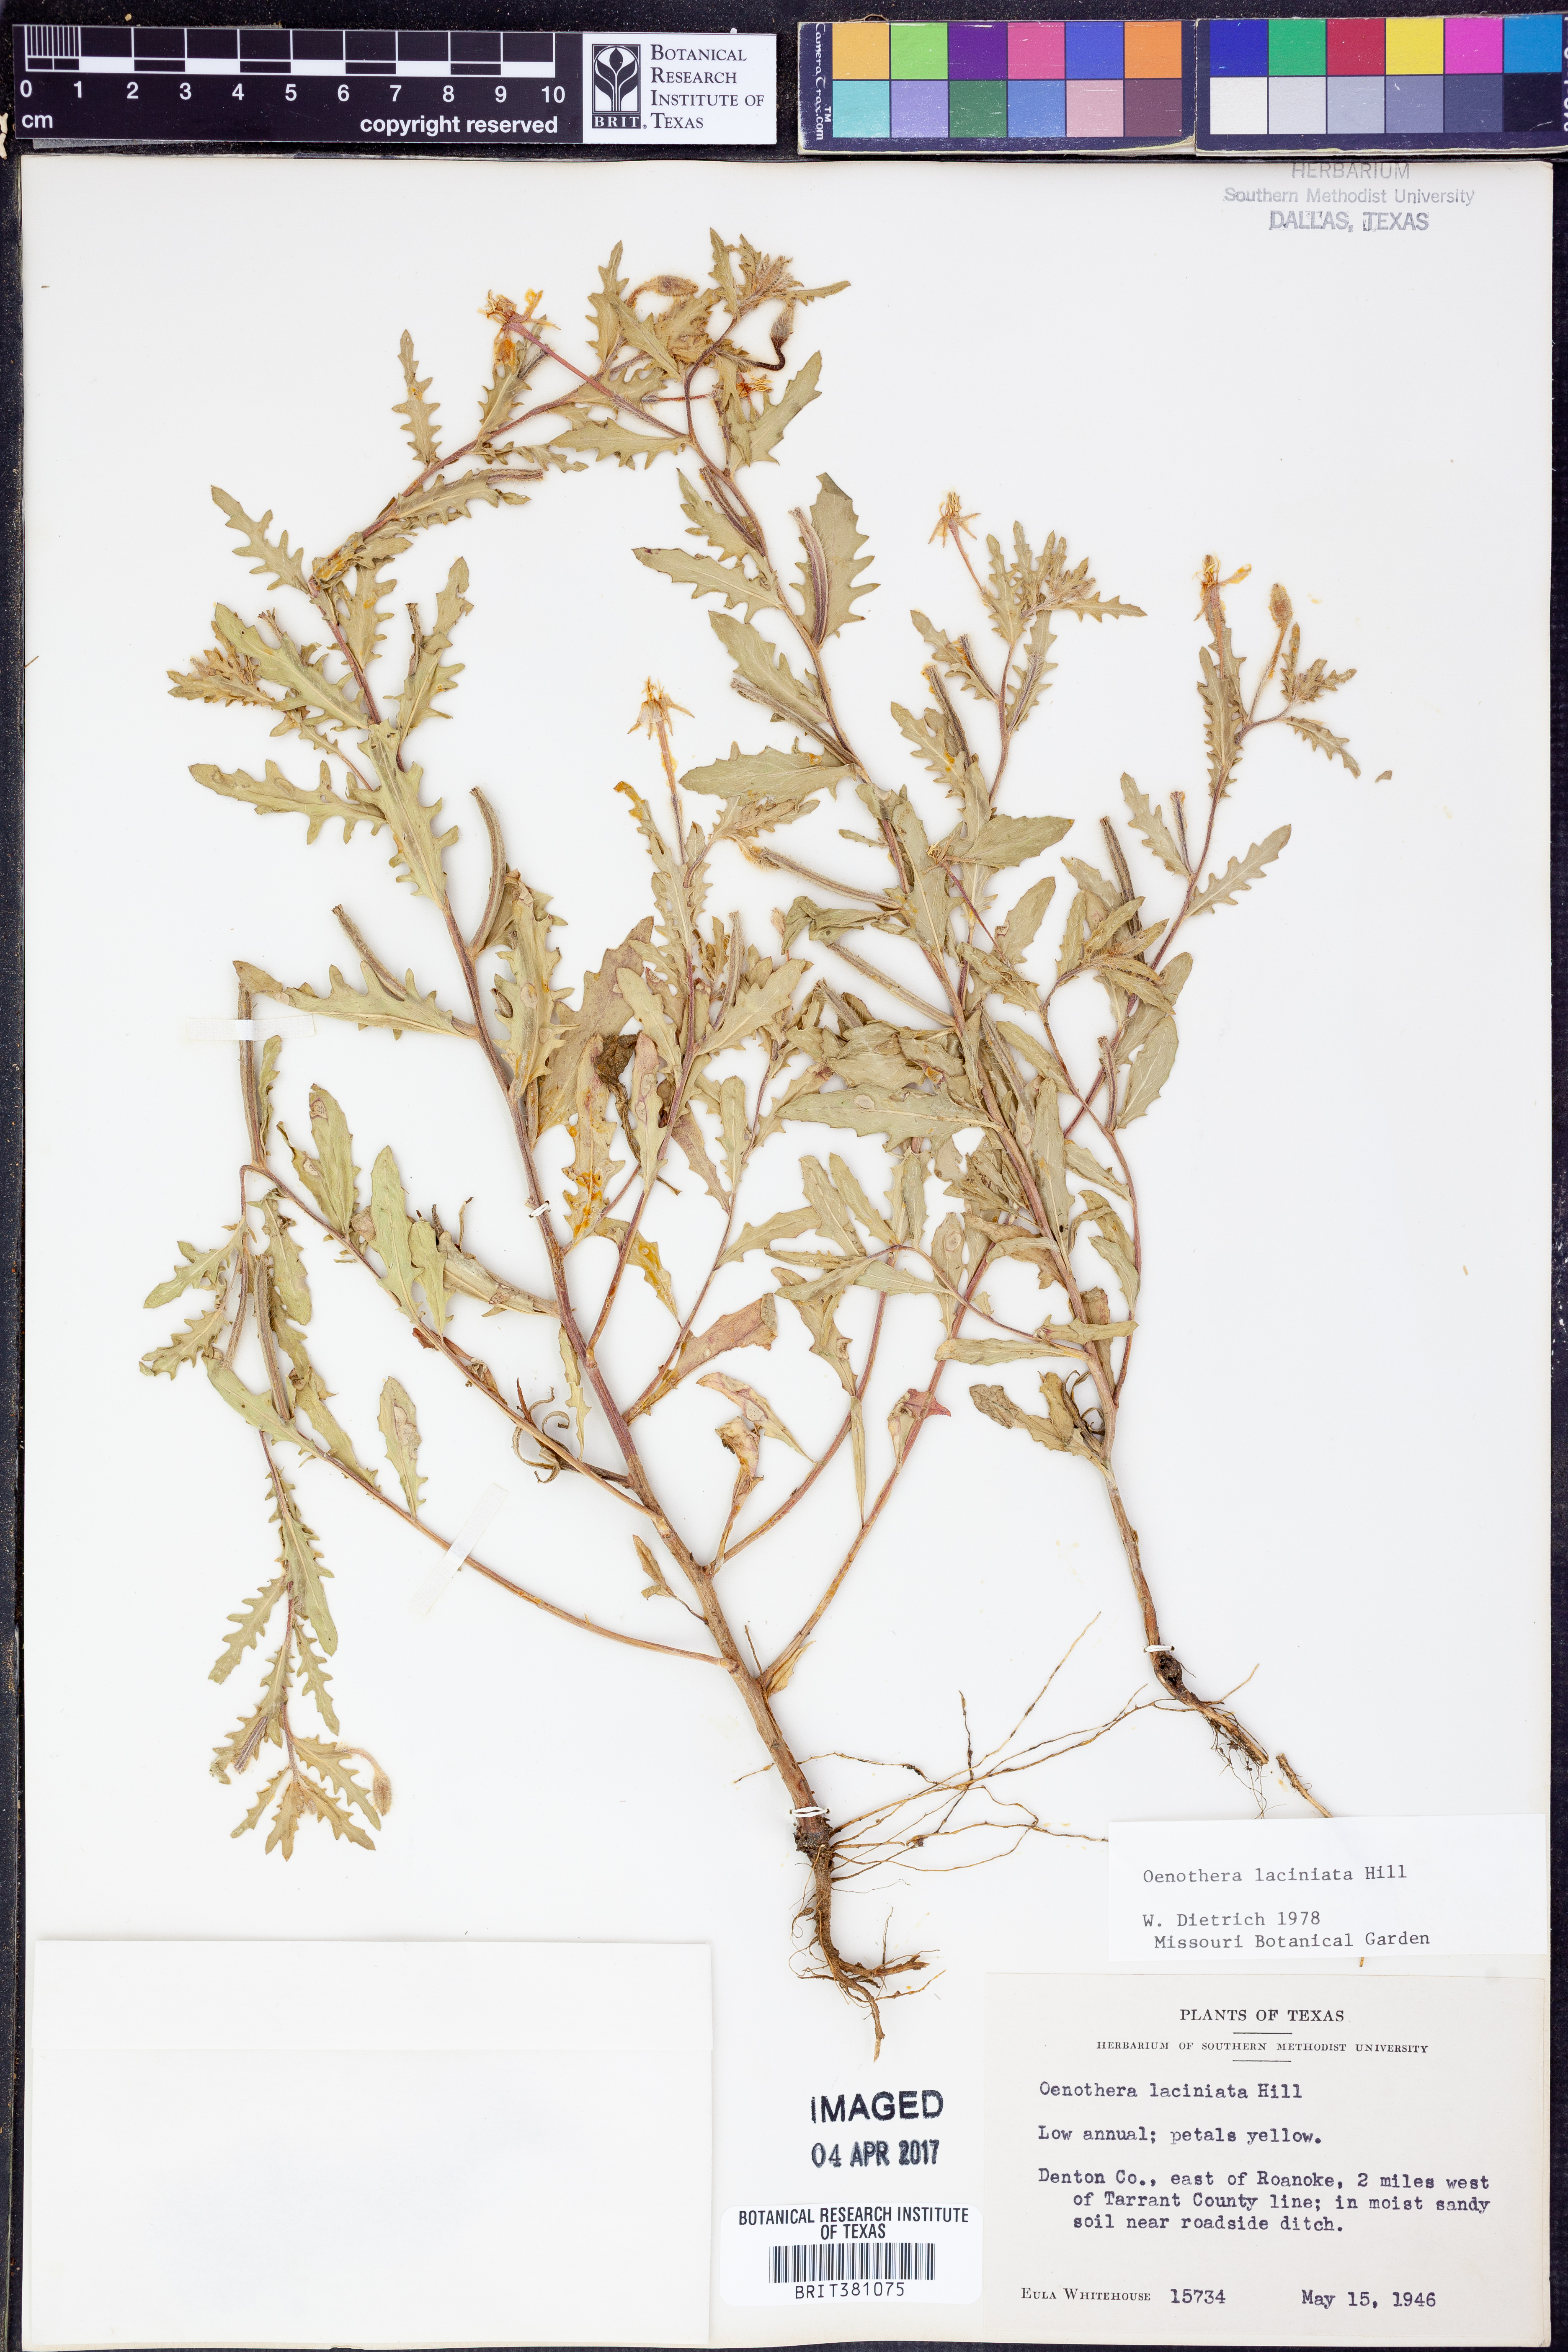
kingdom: Plantae
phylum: Tracheophyta
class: Magnoliopsida
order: Myrtales
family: Onagraceae
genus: Oenothera
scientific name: Oenothera laciniata
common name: Cut-leaved evening-primrose
